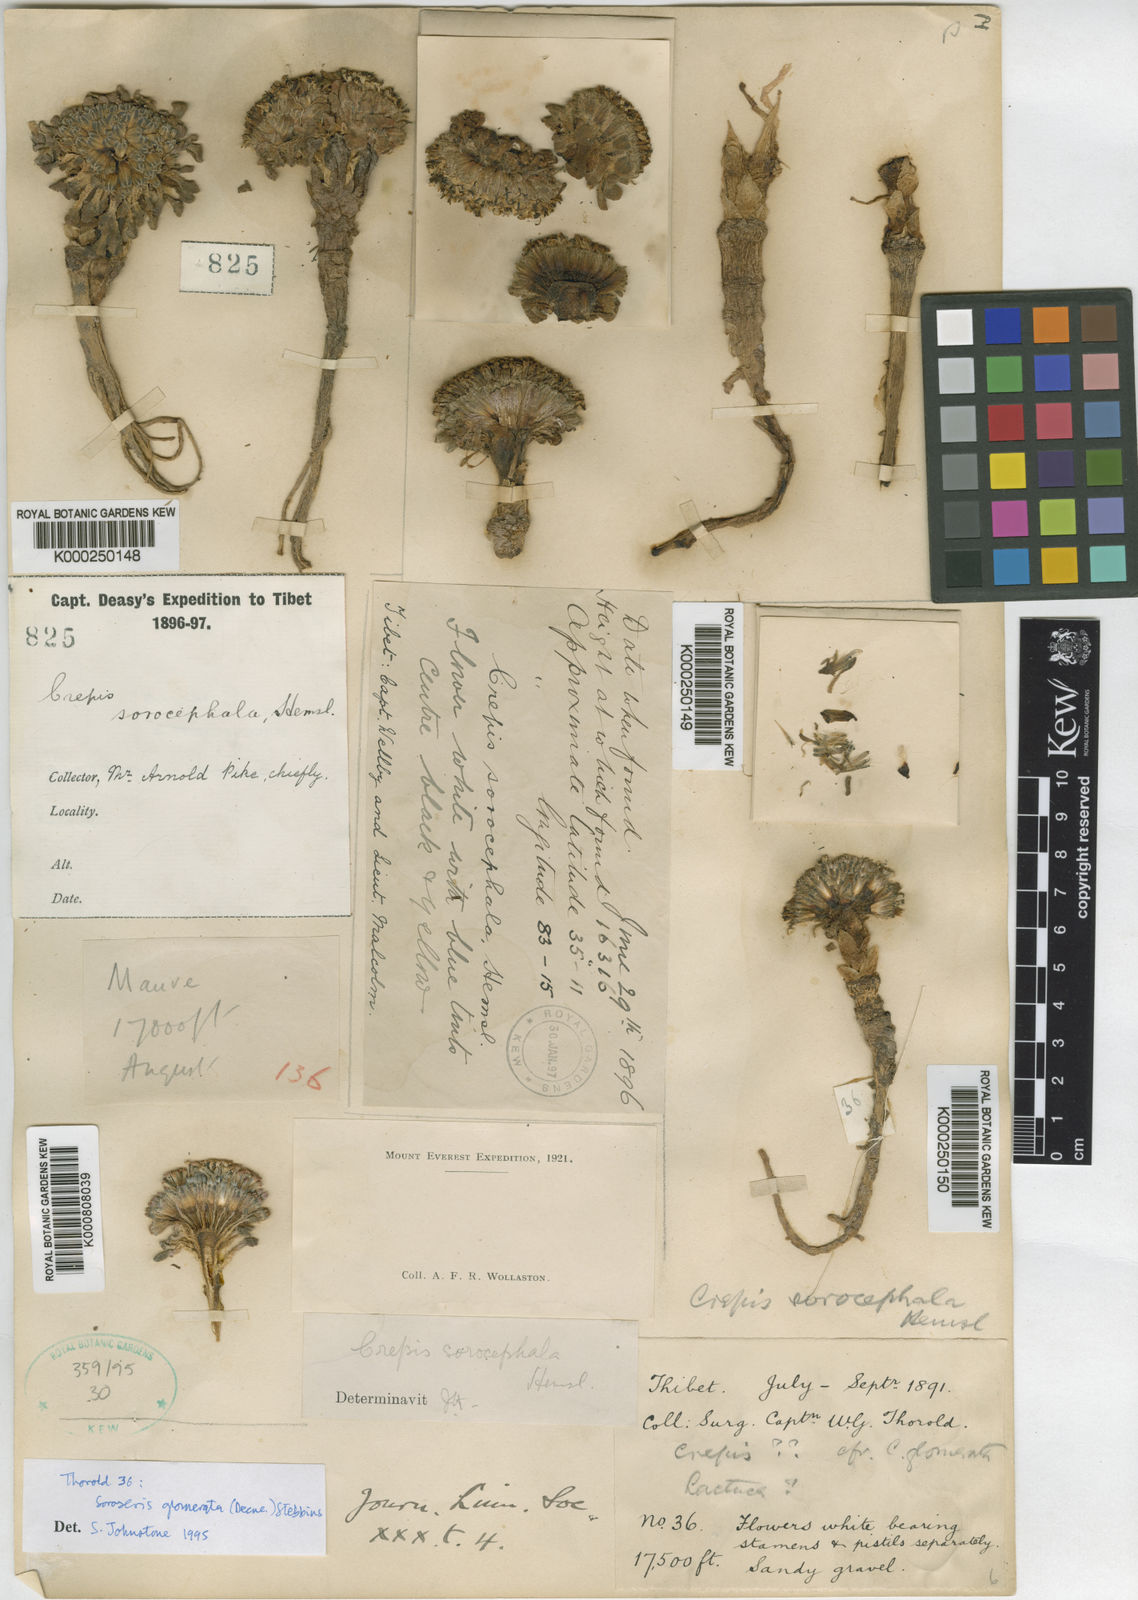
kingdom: Plantae
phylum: Tracheophyta
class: Magnoliopsida
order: Asterales
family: Asteraceae
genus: Soroseris
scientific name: Soroseris glomerata
